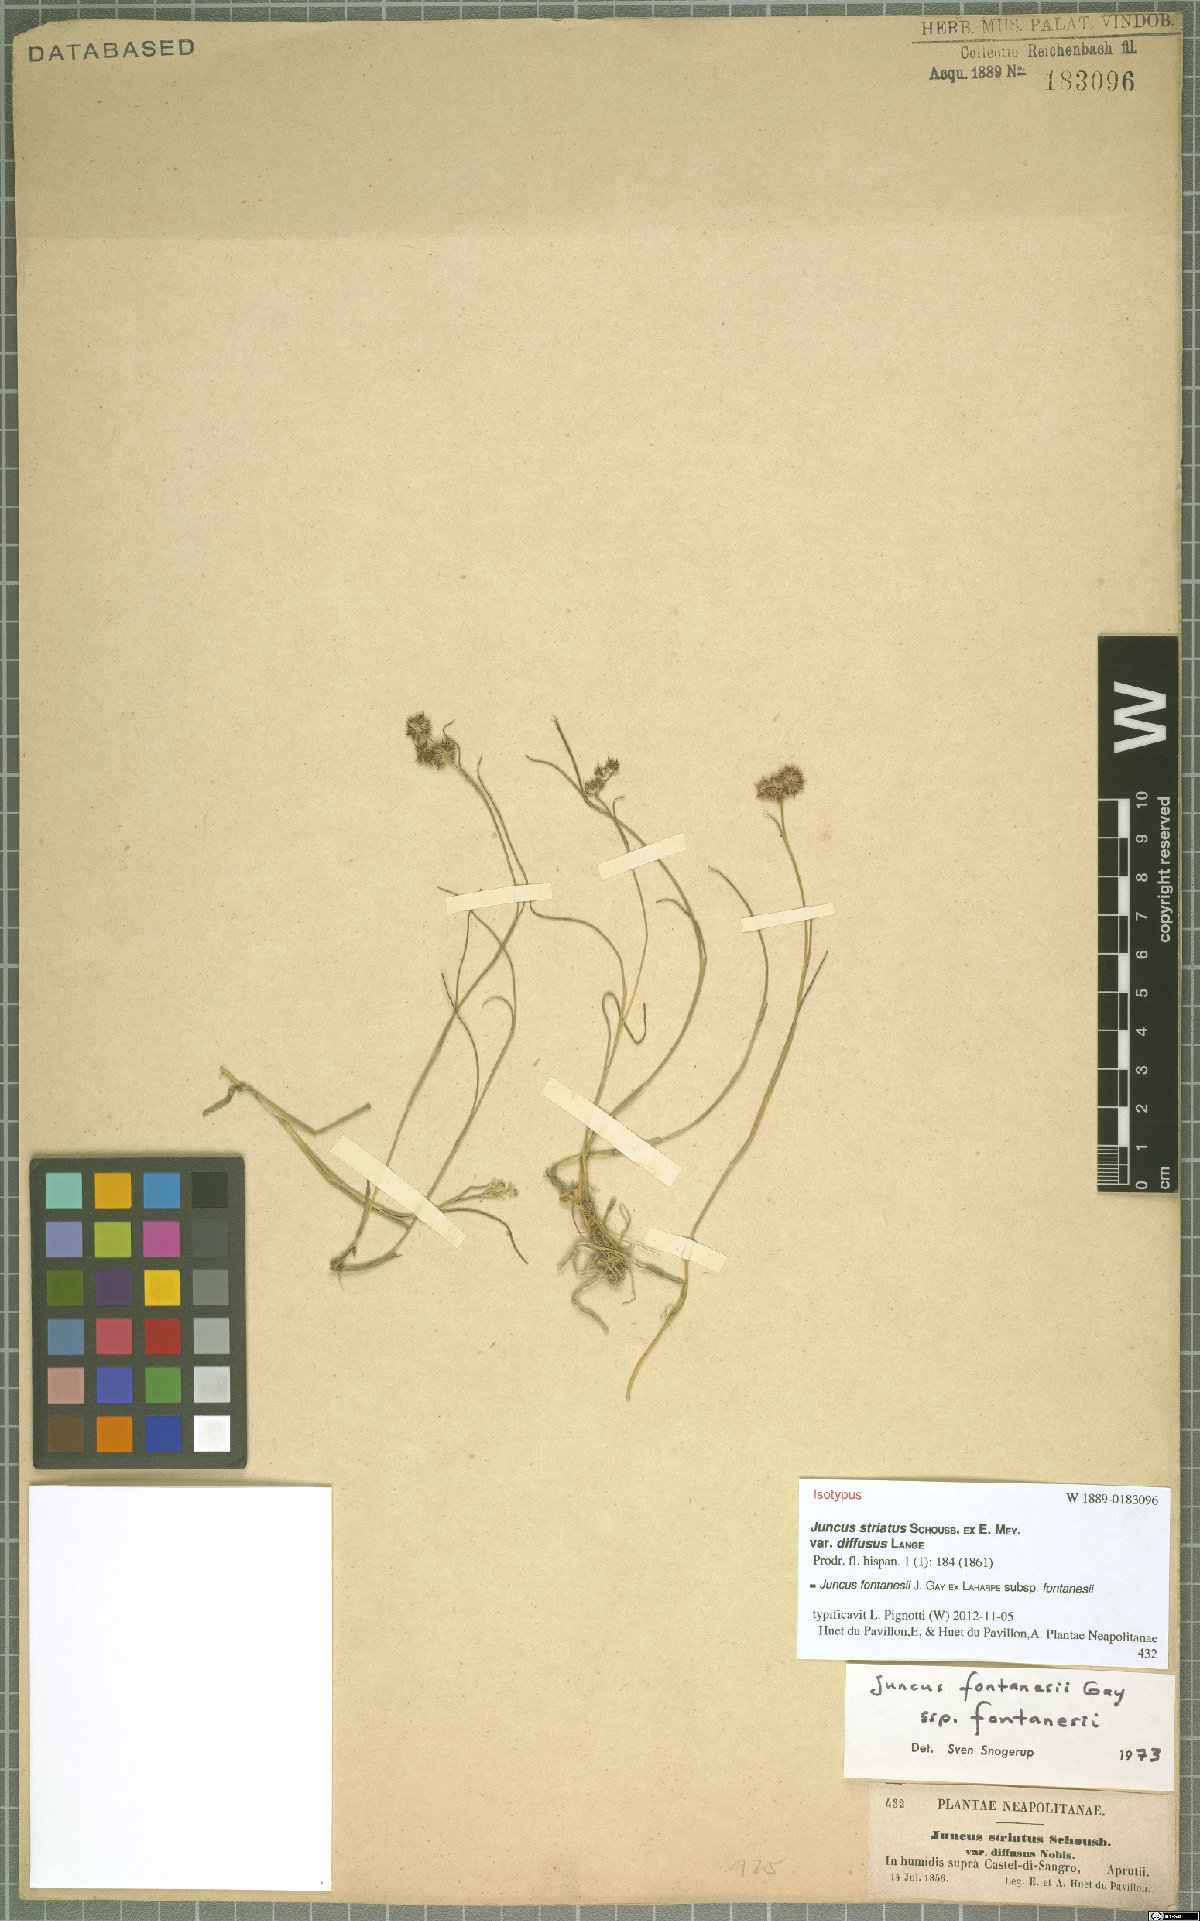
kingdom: Plantae
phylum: Tracheophyta
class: Liliopsida
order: Poales
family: Juncaceae
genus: Juncus
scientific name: Juncus fontanesii
